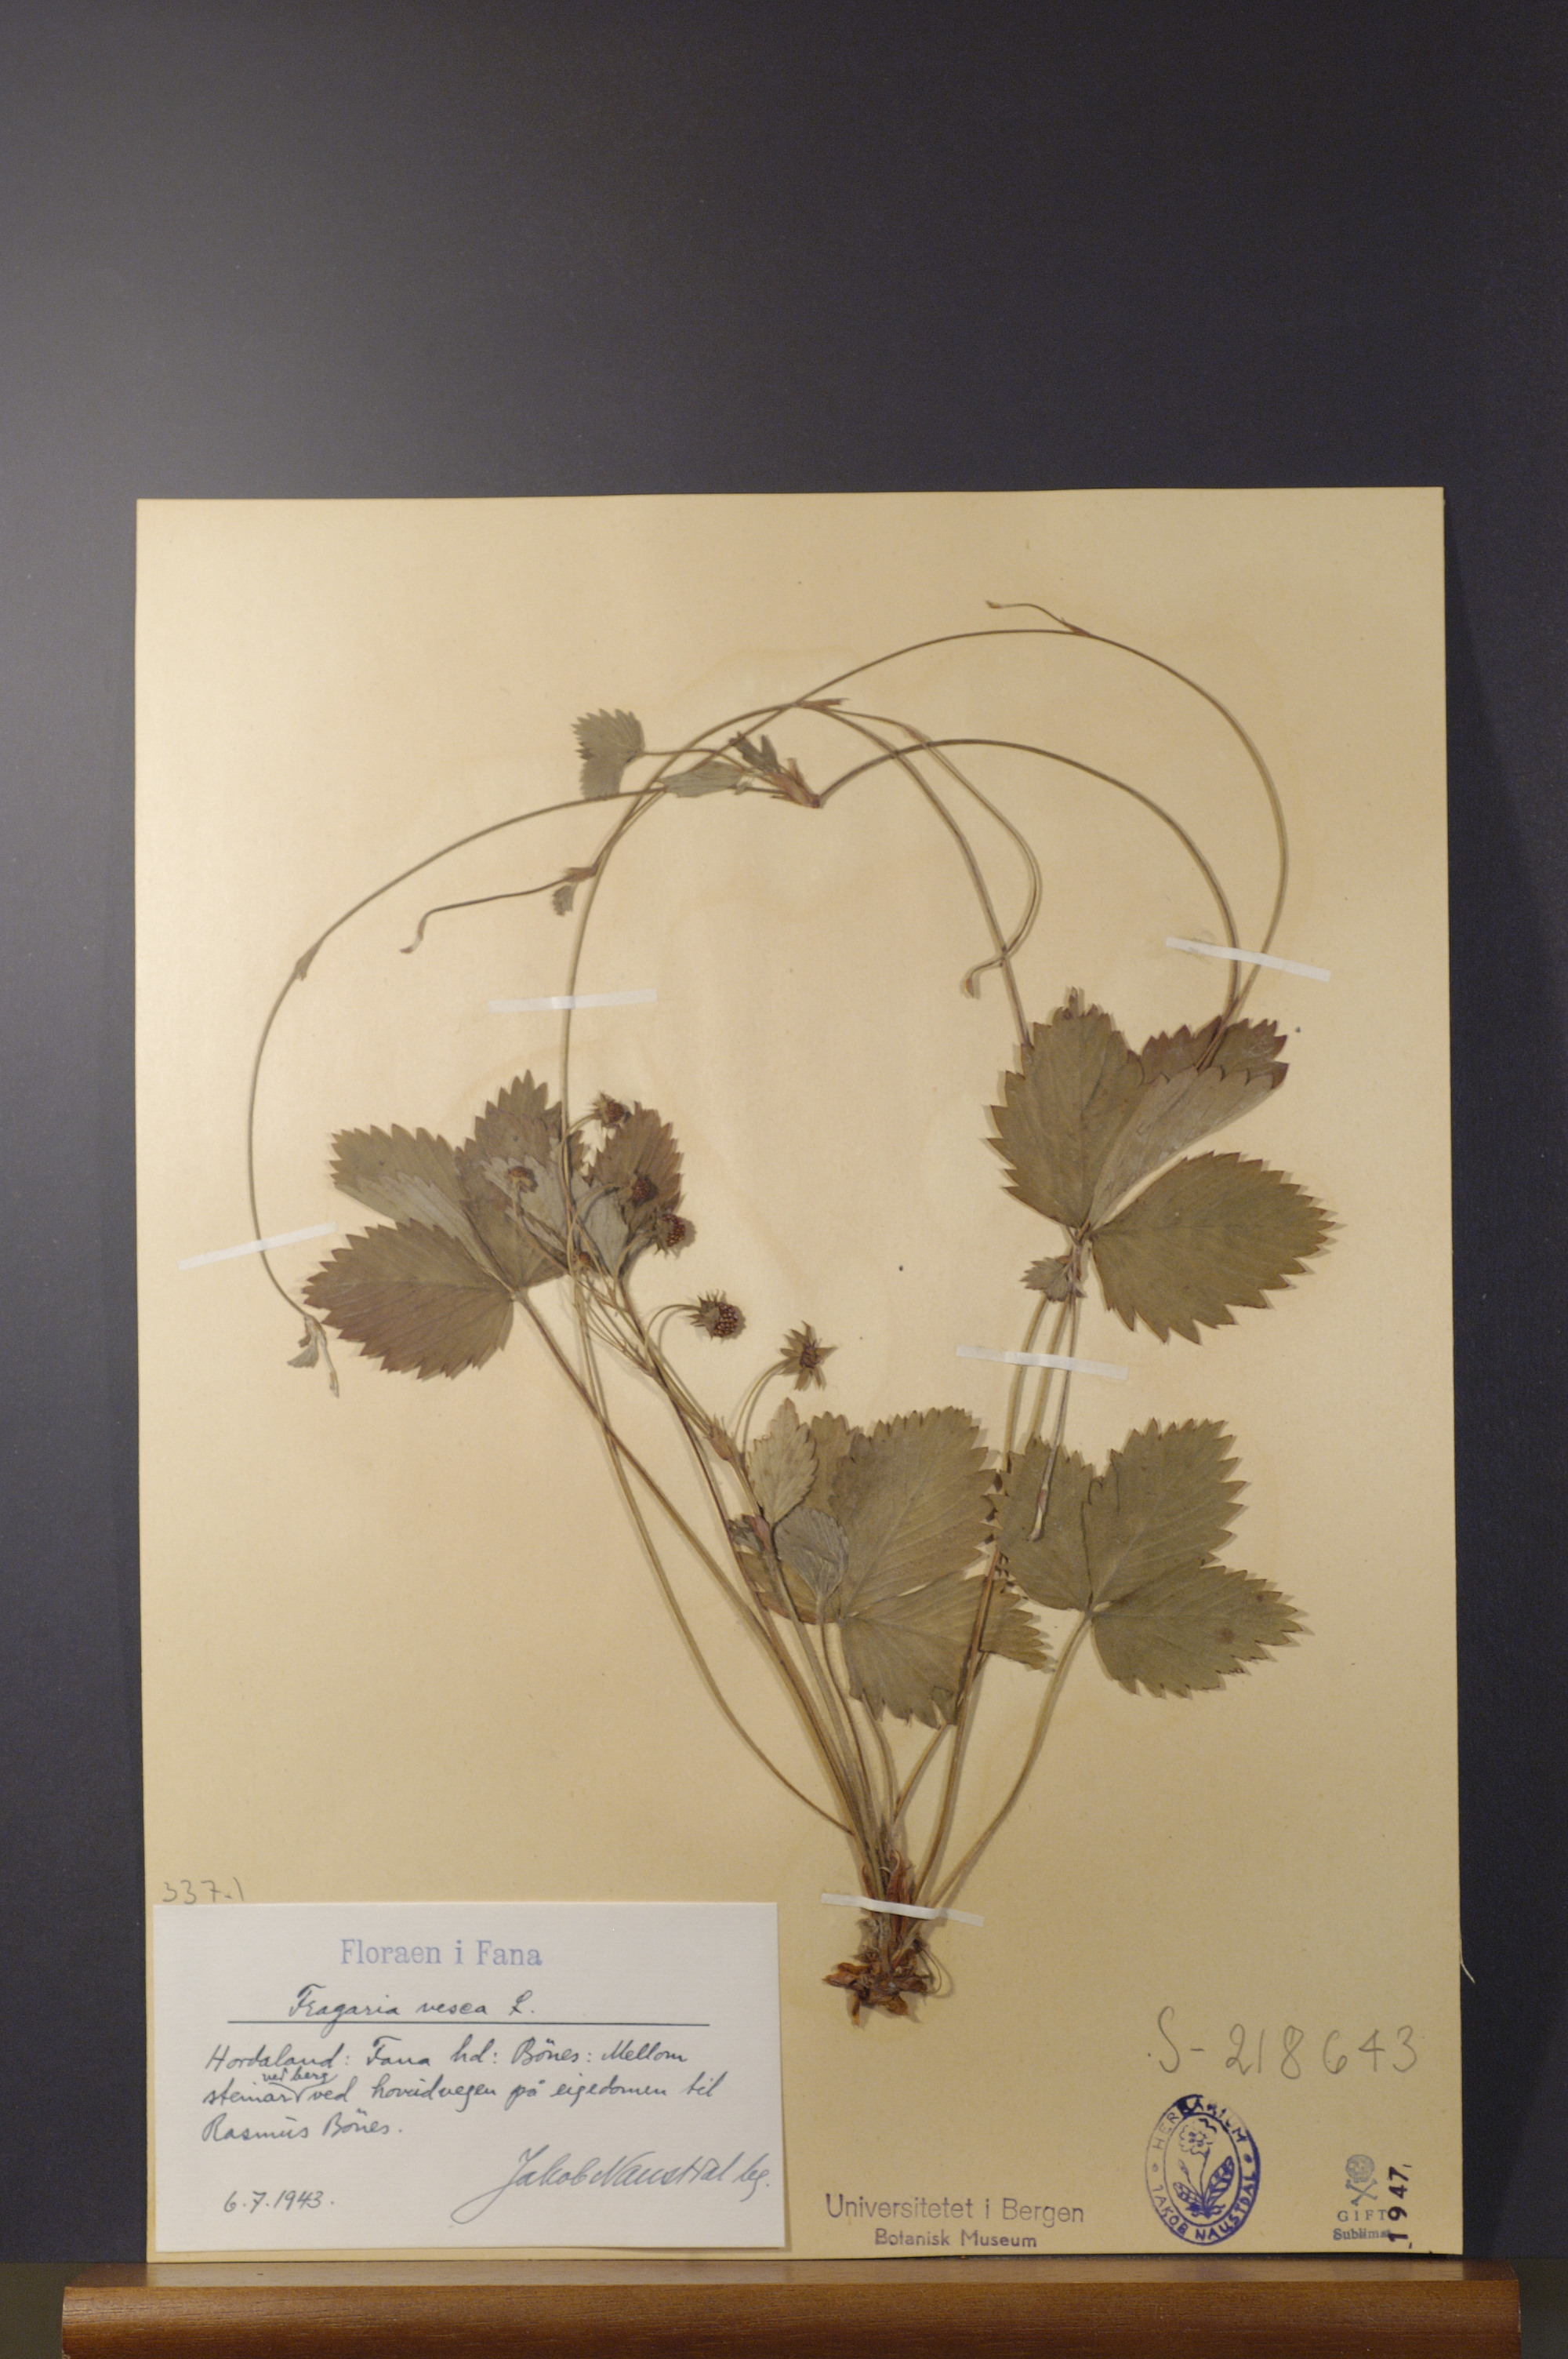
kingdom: Plantae
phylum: Tracheophyta
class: Magnoliopsida
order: Rosales
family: Rosaceae
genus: Fragaria
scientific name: Fragaria vesca
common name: Wild strawberry
